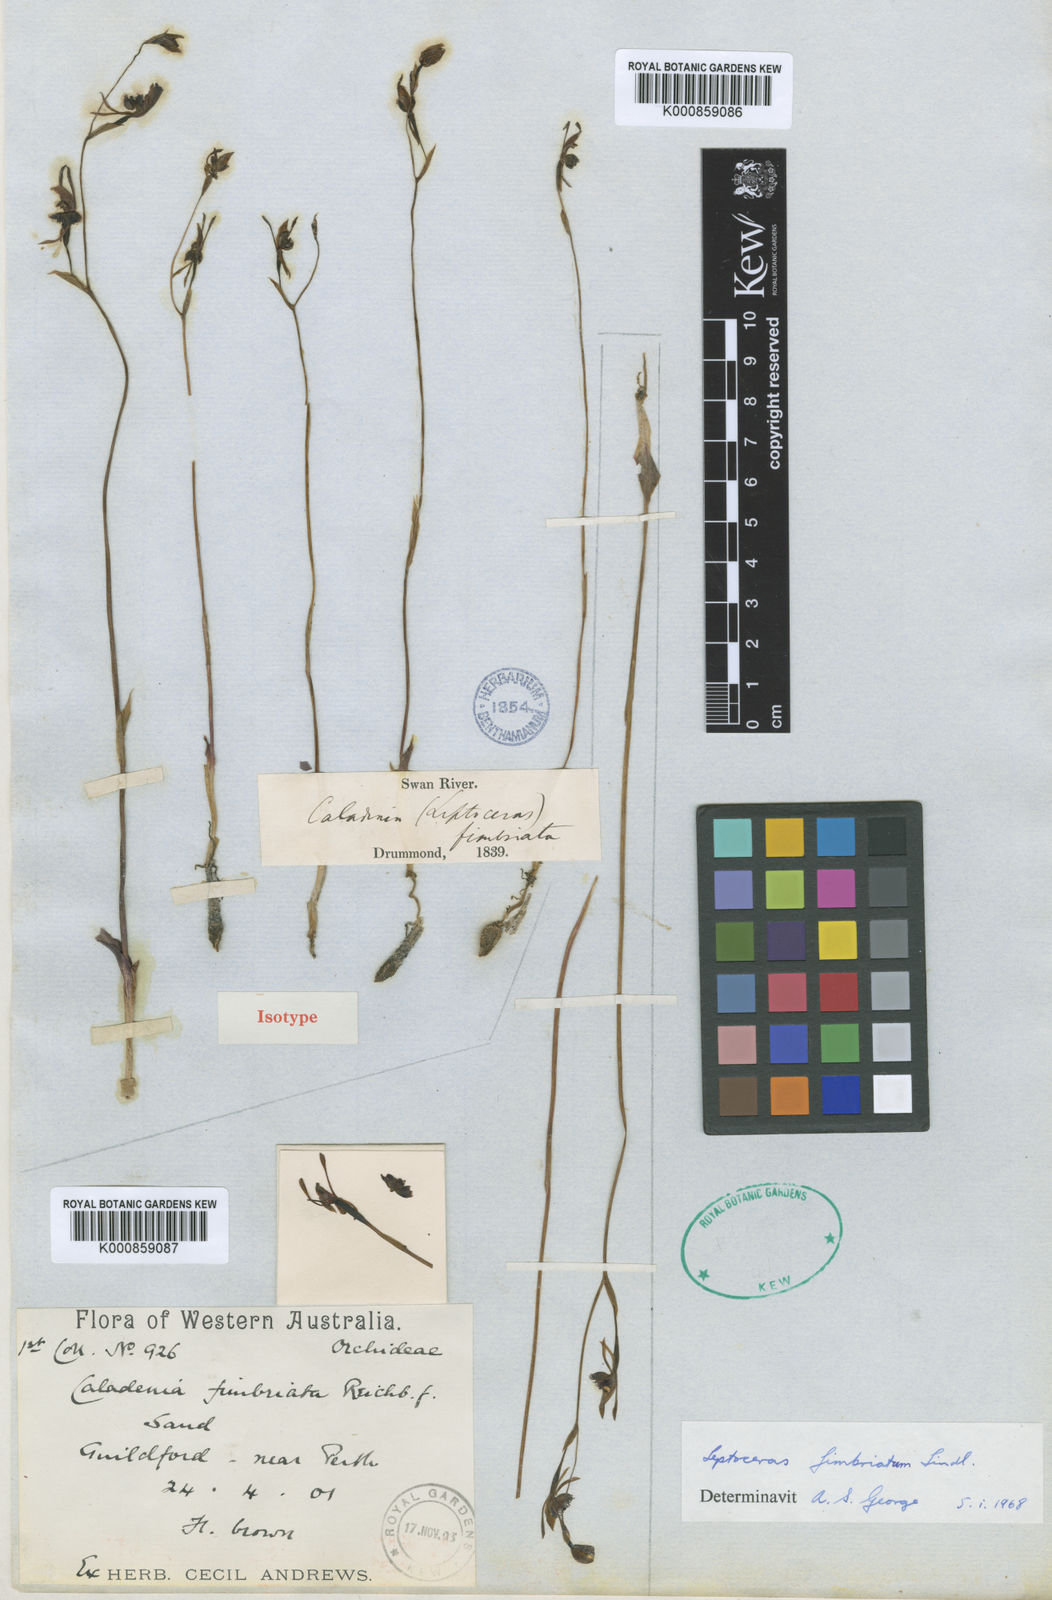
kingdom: Plantae
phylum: Tracheophyta
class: Liliopsida
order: Asparagales
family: Orchidaceae
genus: Leporella
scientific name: Leporella fimbriata
